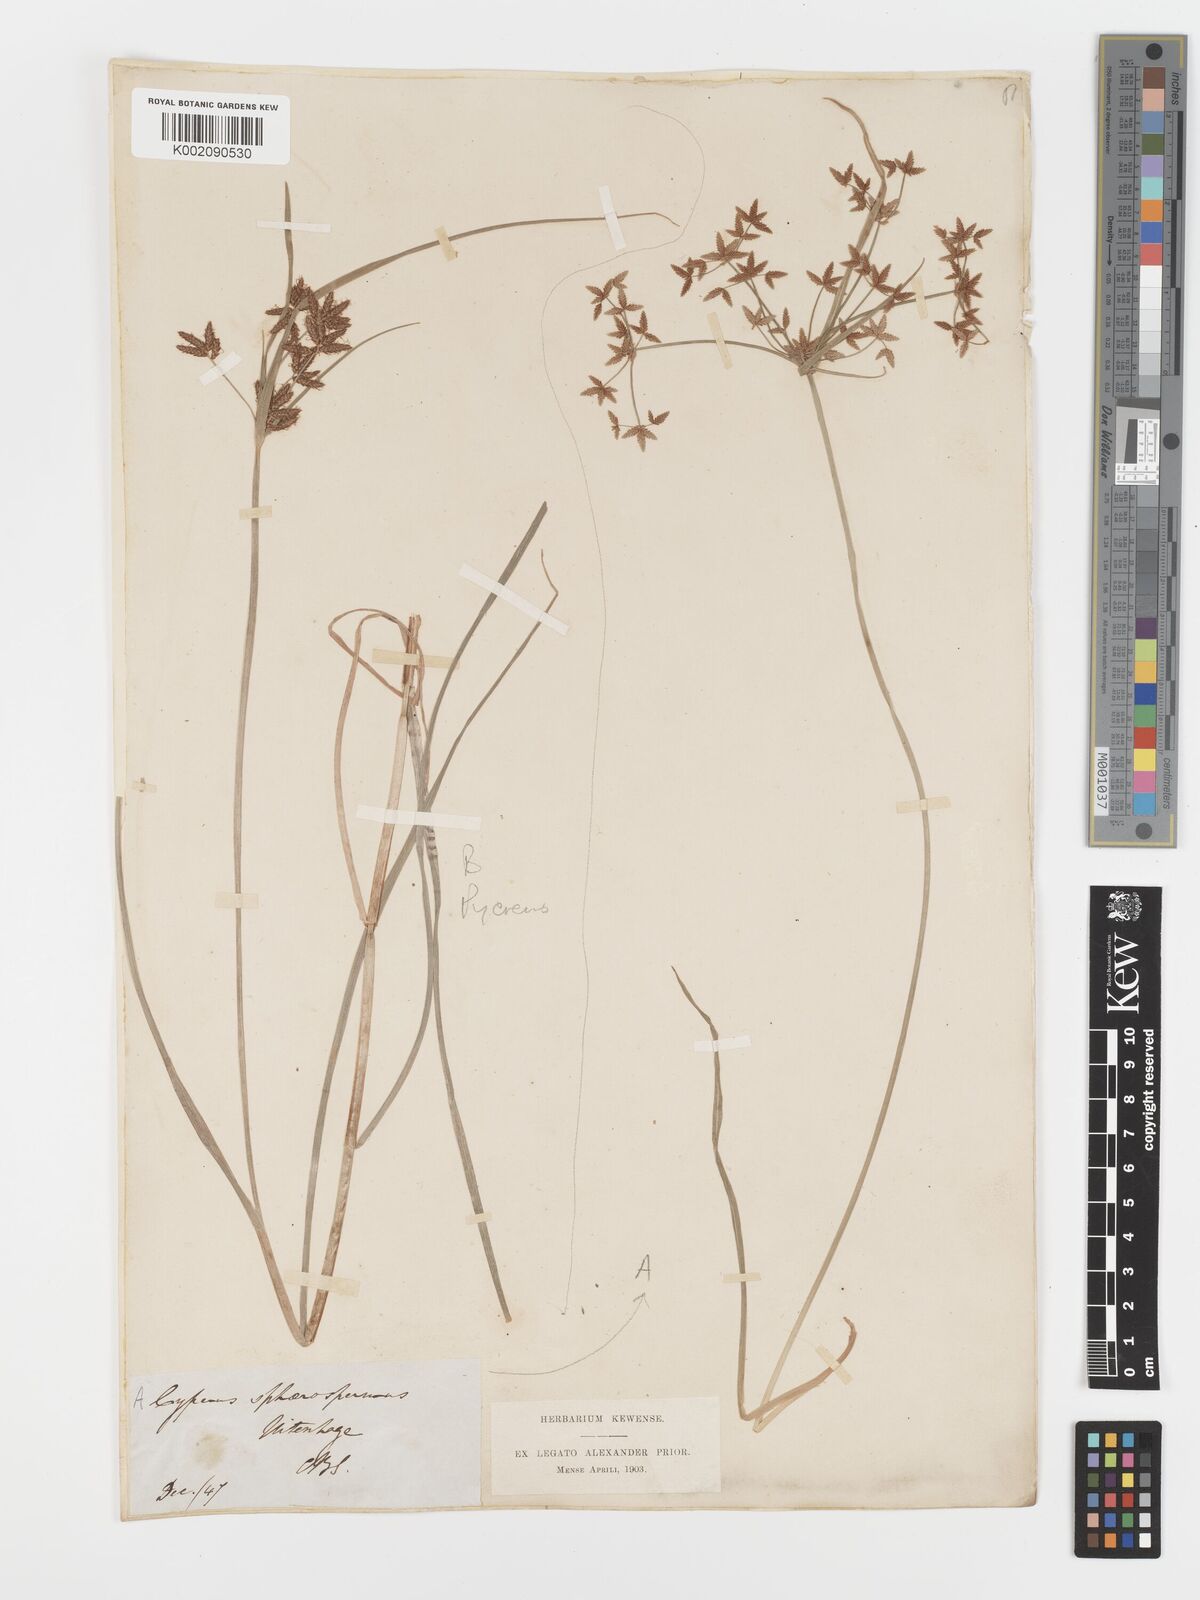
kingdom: Plantae
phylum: Tracheophyta
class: Liliopsida
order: Poales
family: Cyperaceae
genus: Cyperus
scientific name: Cyperus sphaerospermus
